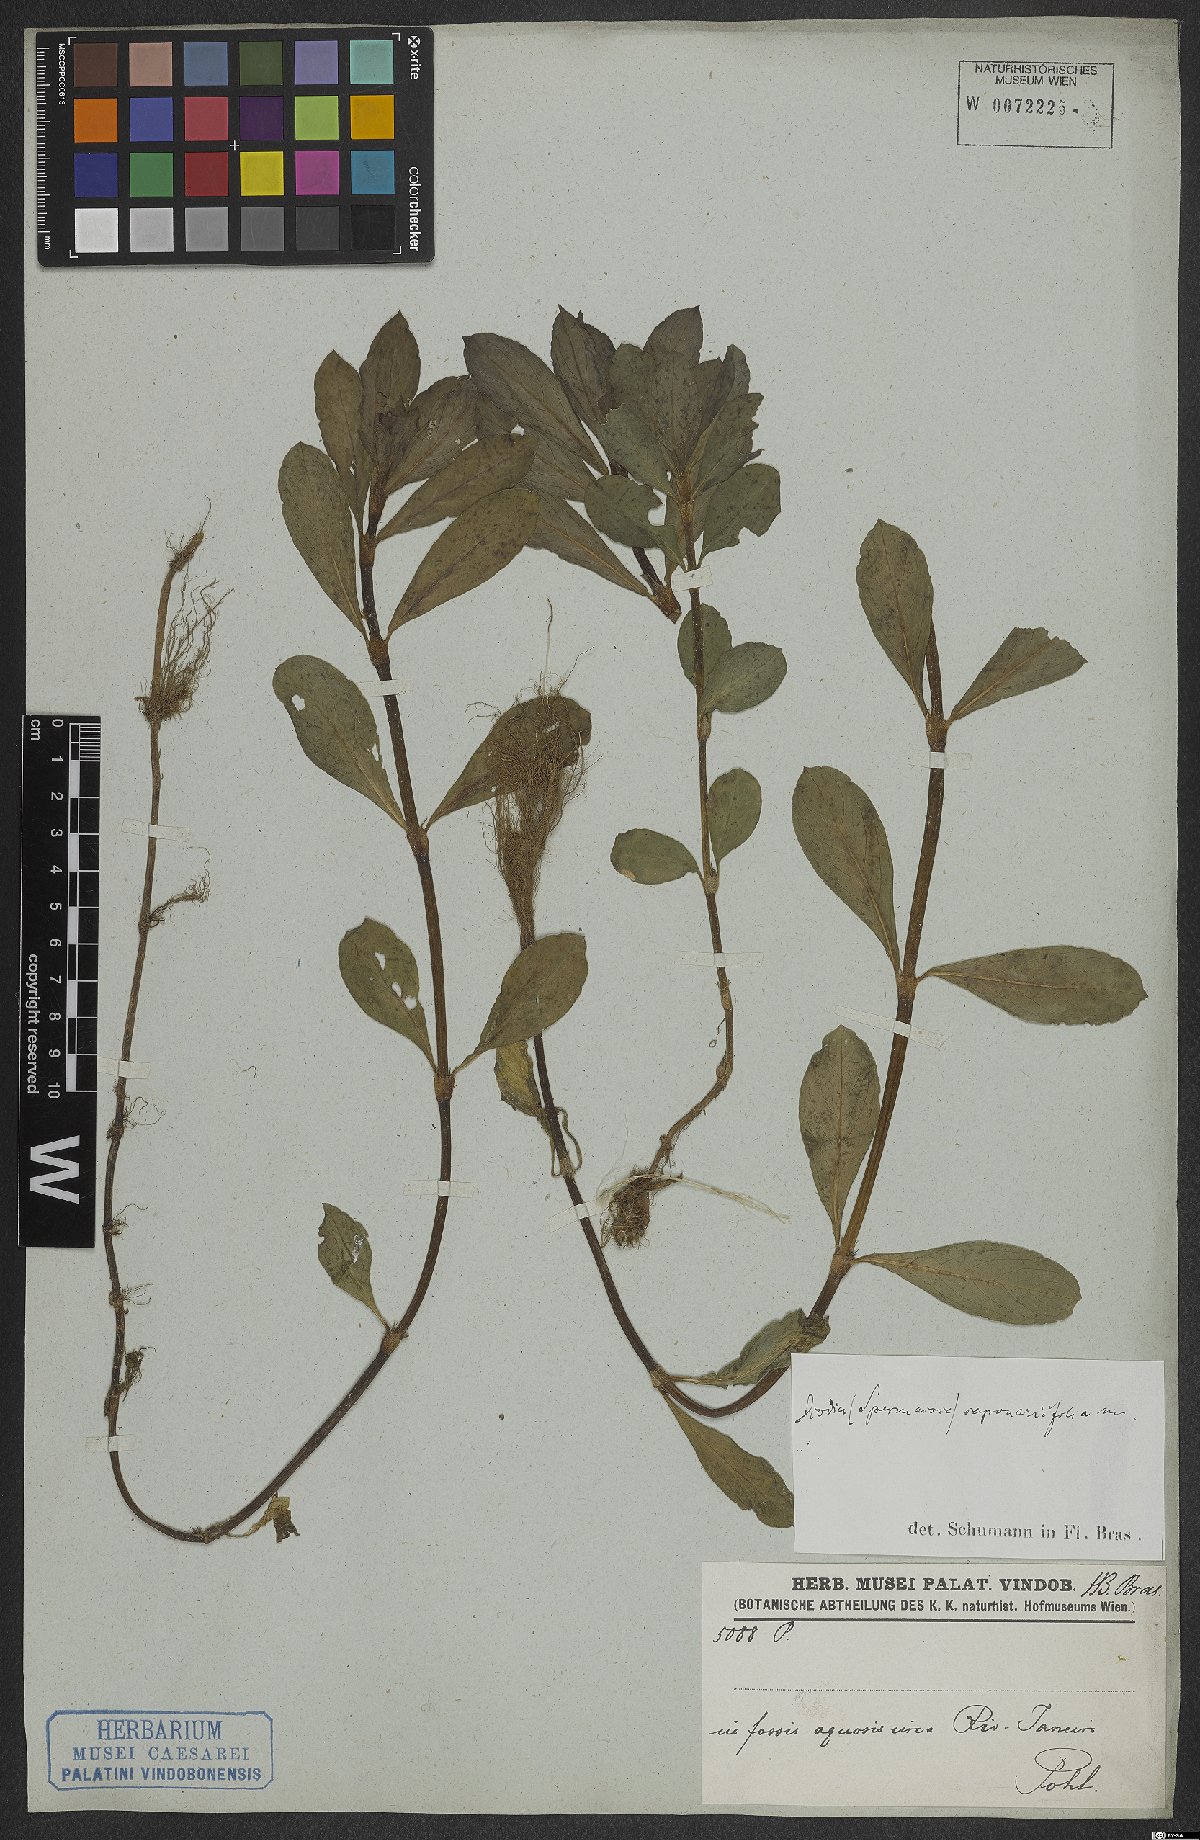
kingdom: Plantae
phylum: Tracheophyta
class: Magnoliopsida
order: Gentianales
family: Rubiaceae
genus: Diodia
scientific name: Diodia saponariifolia
